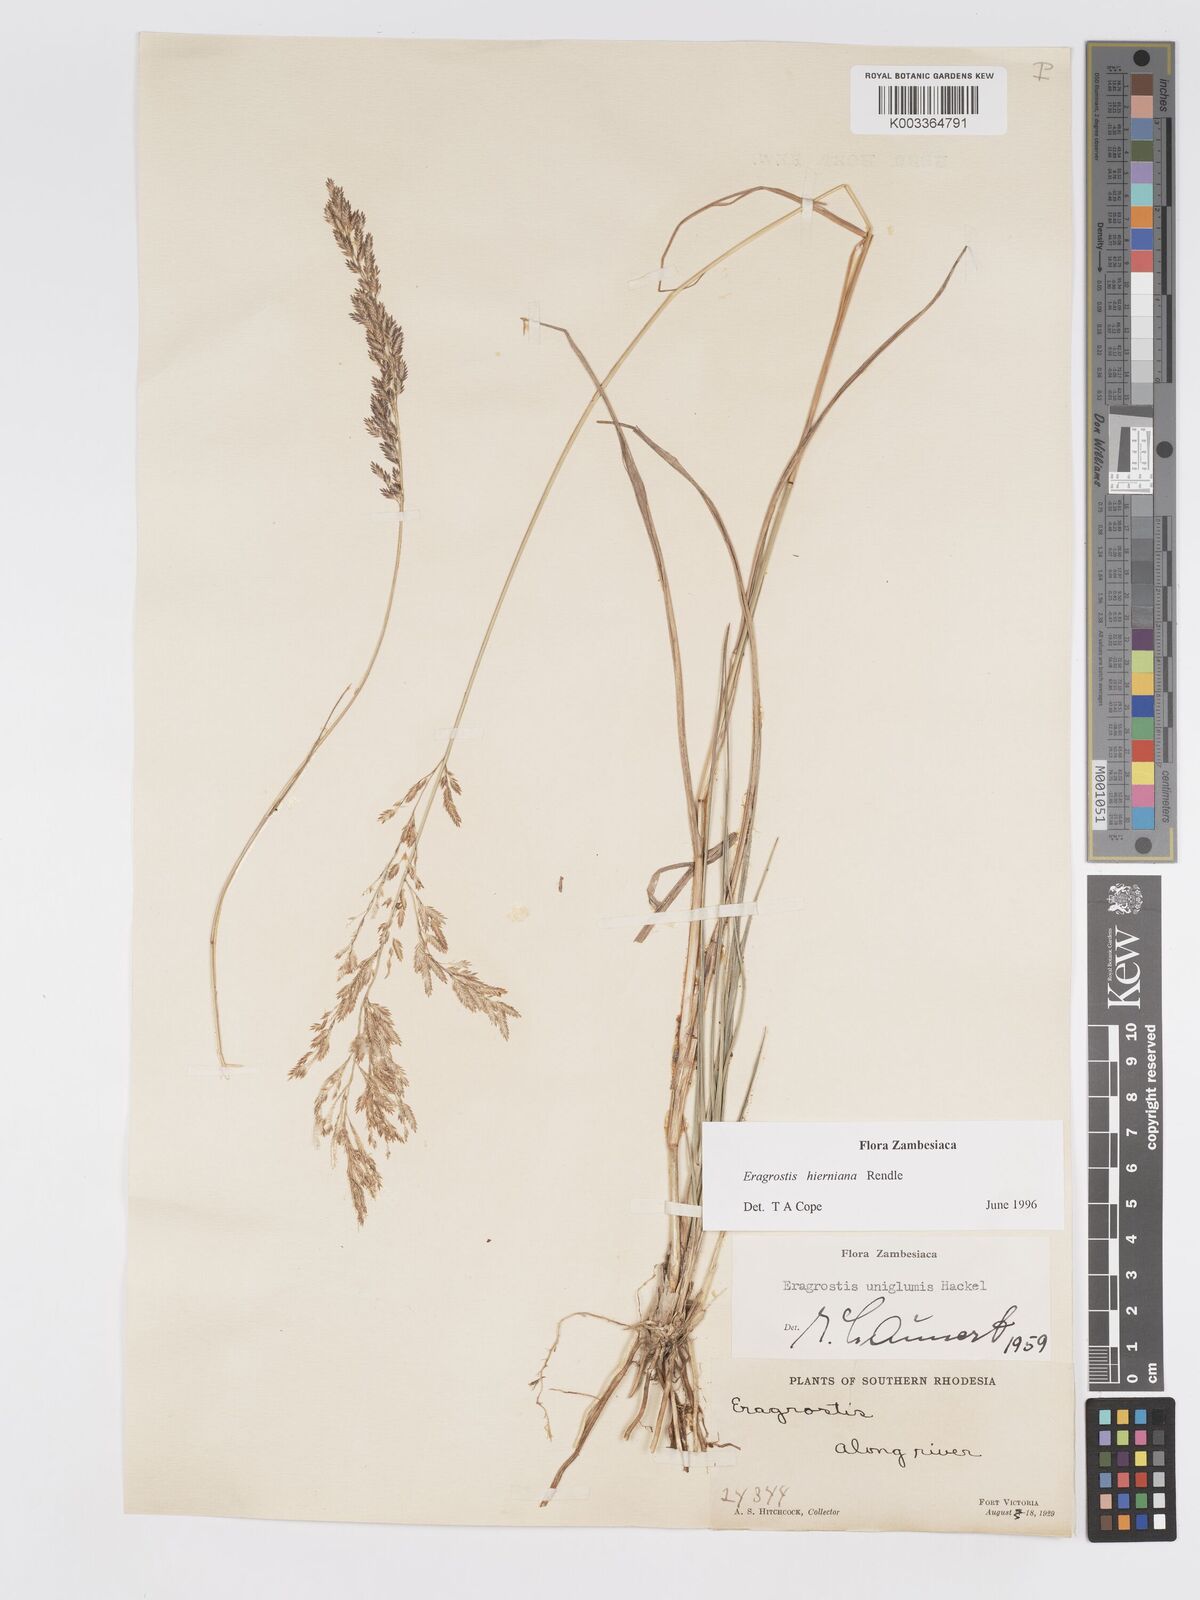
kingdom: Plantae
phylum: Tracheophyta
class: Liliopsida
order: Poales
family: Poaceae
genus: Eragrostis
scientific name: Eragrostis hierniana
